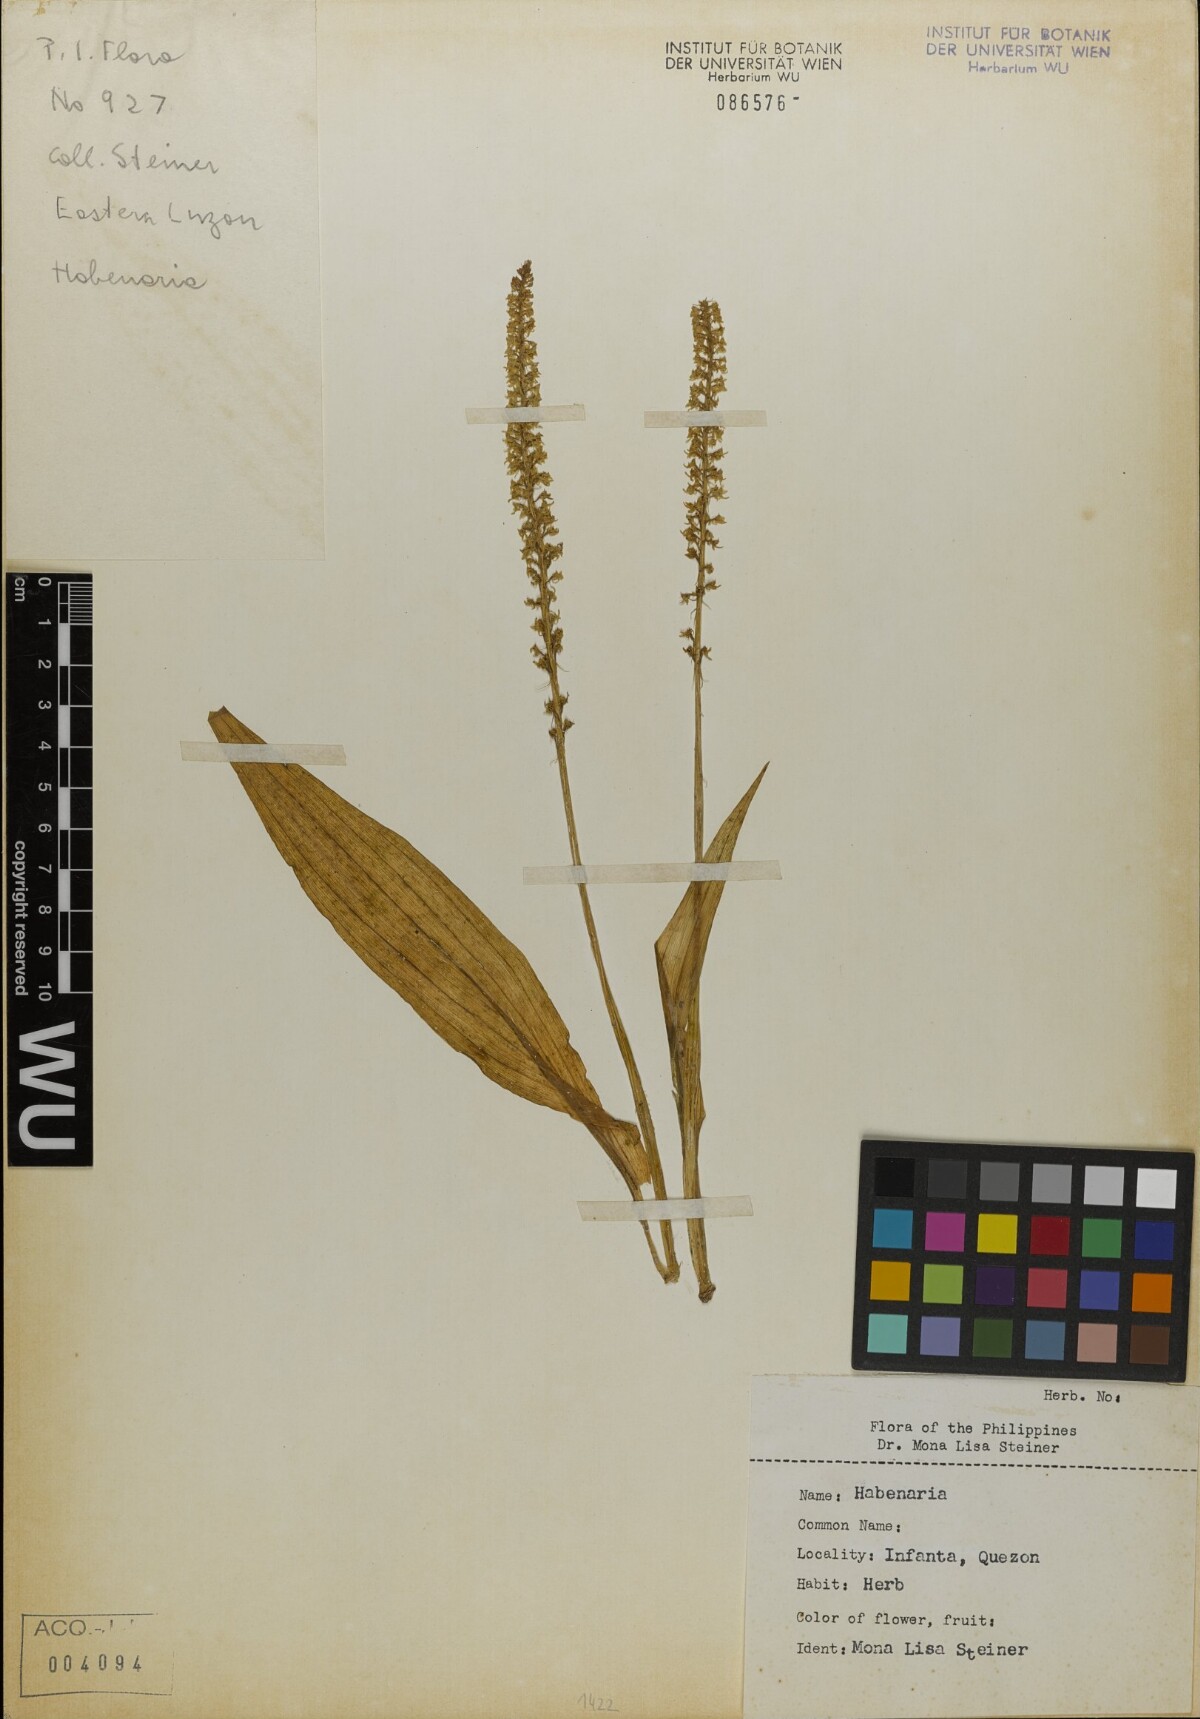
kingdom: Plantae
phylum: Tracheophyta
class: Liliopsida
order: Asparagales
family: Orchidaceae
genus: Habenaria
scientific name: Habenaria
